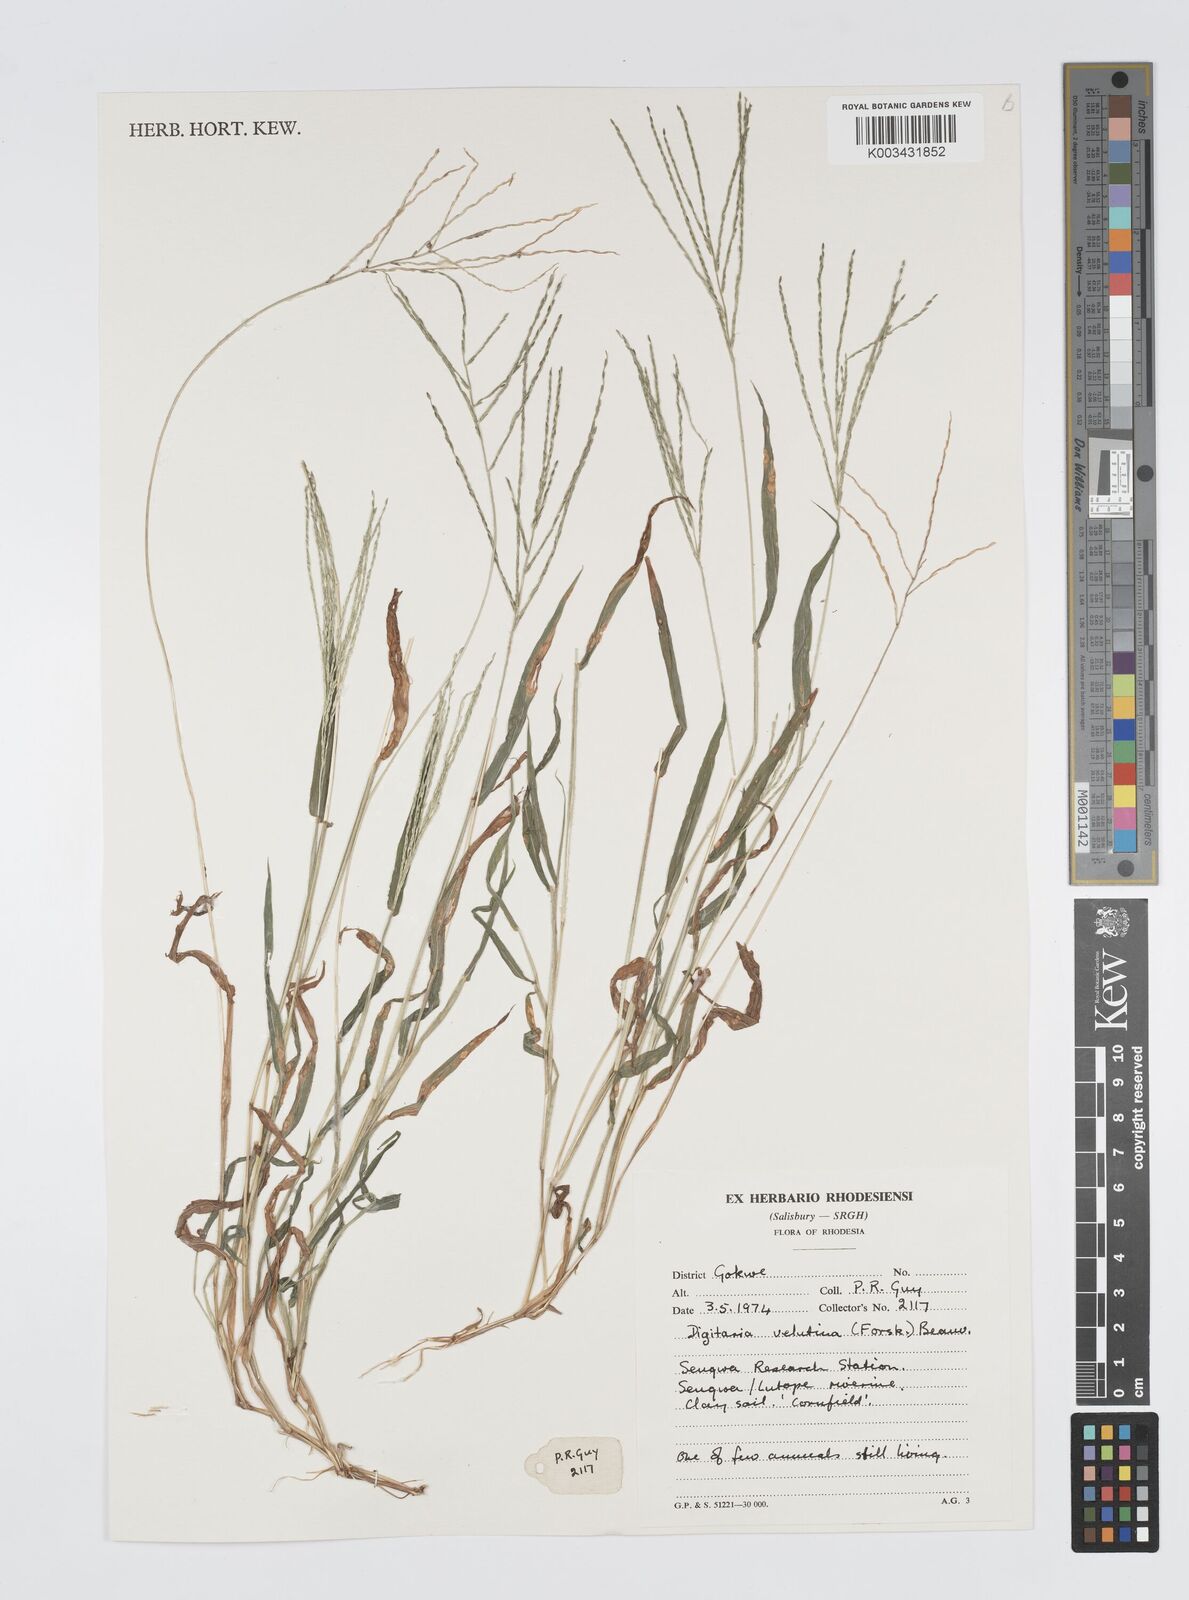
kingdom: Plantae
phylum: Tracheophyta
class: Liliopsida
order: Poales
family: Poaceae
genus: Digitaria
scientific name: Digitaria velutina
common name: Long-plume finger grass
